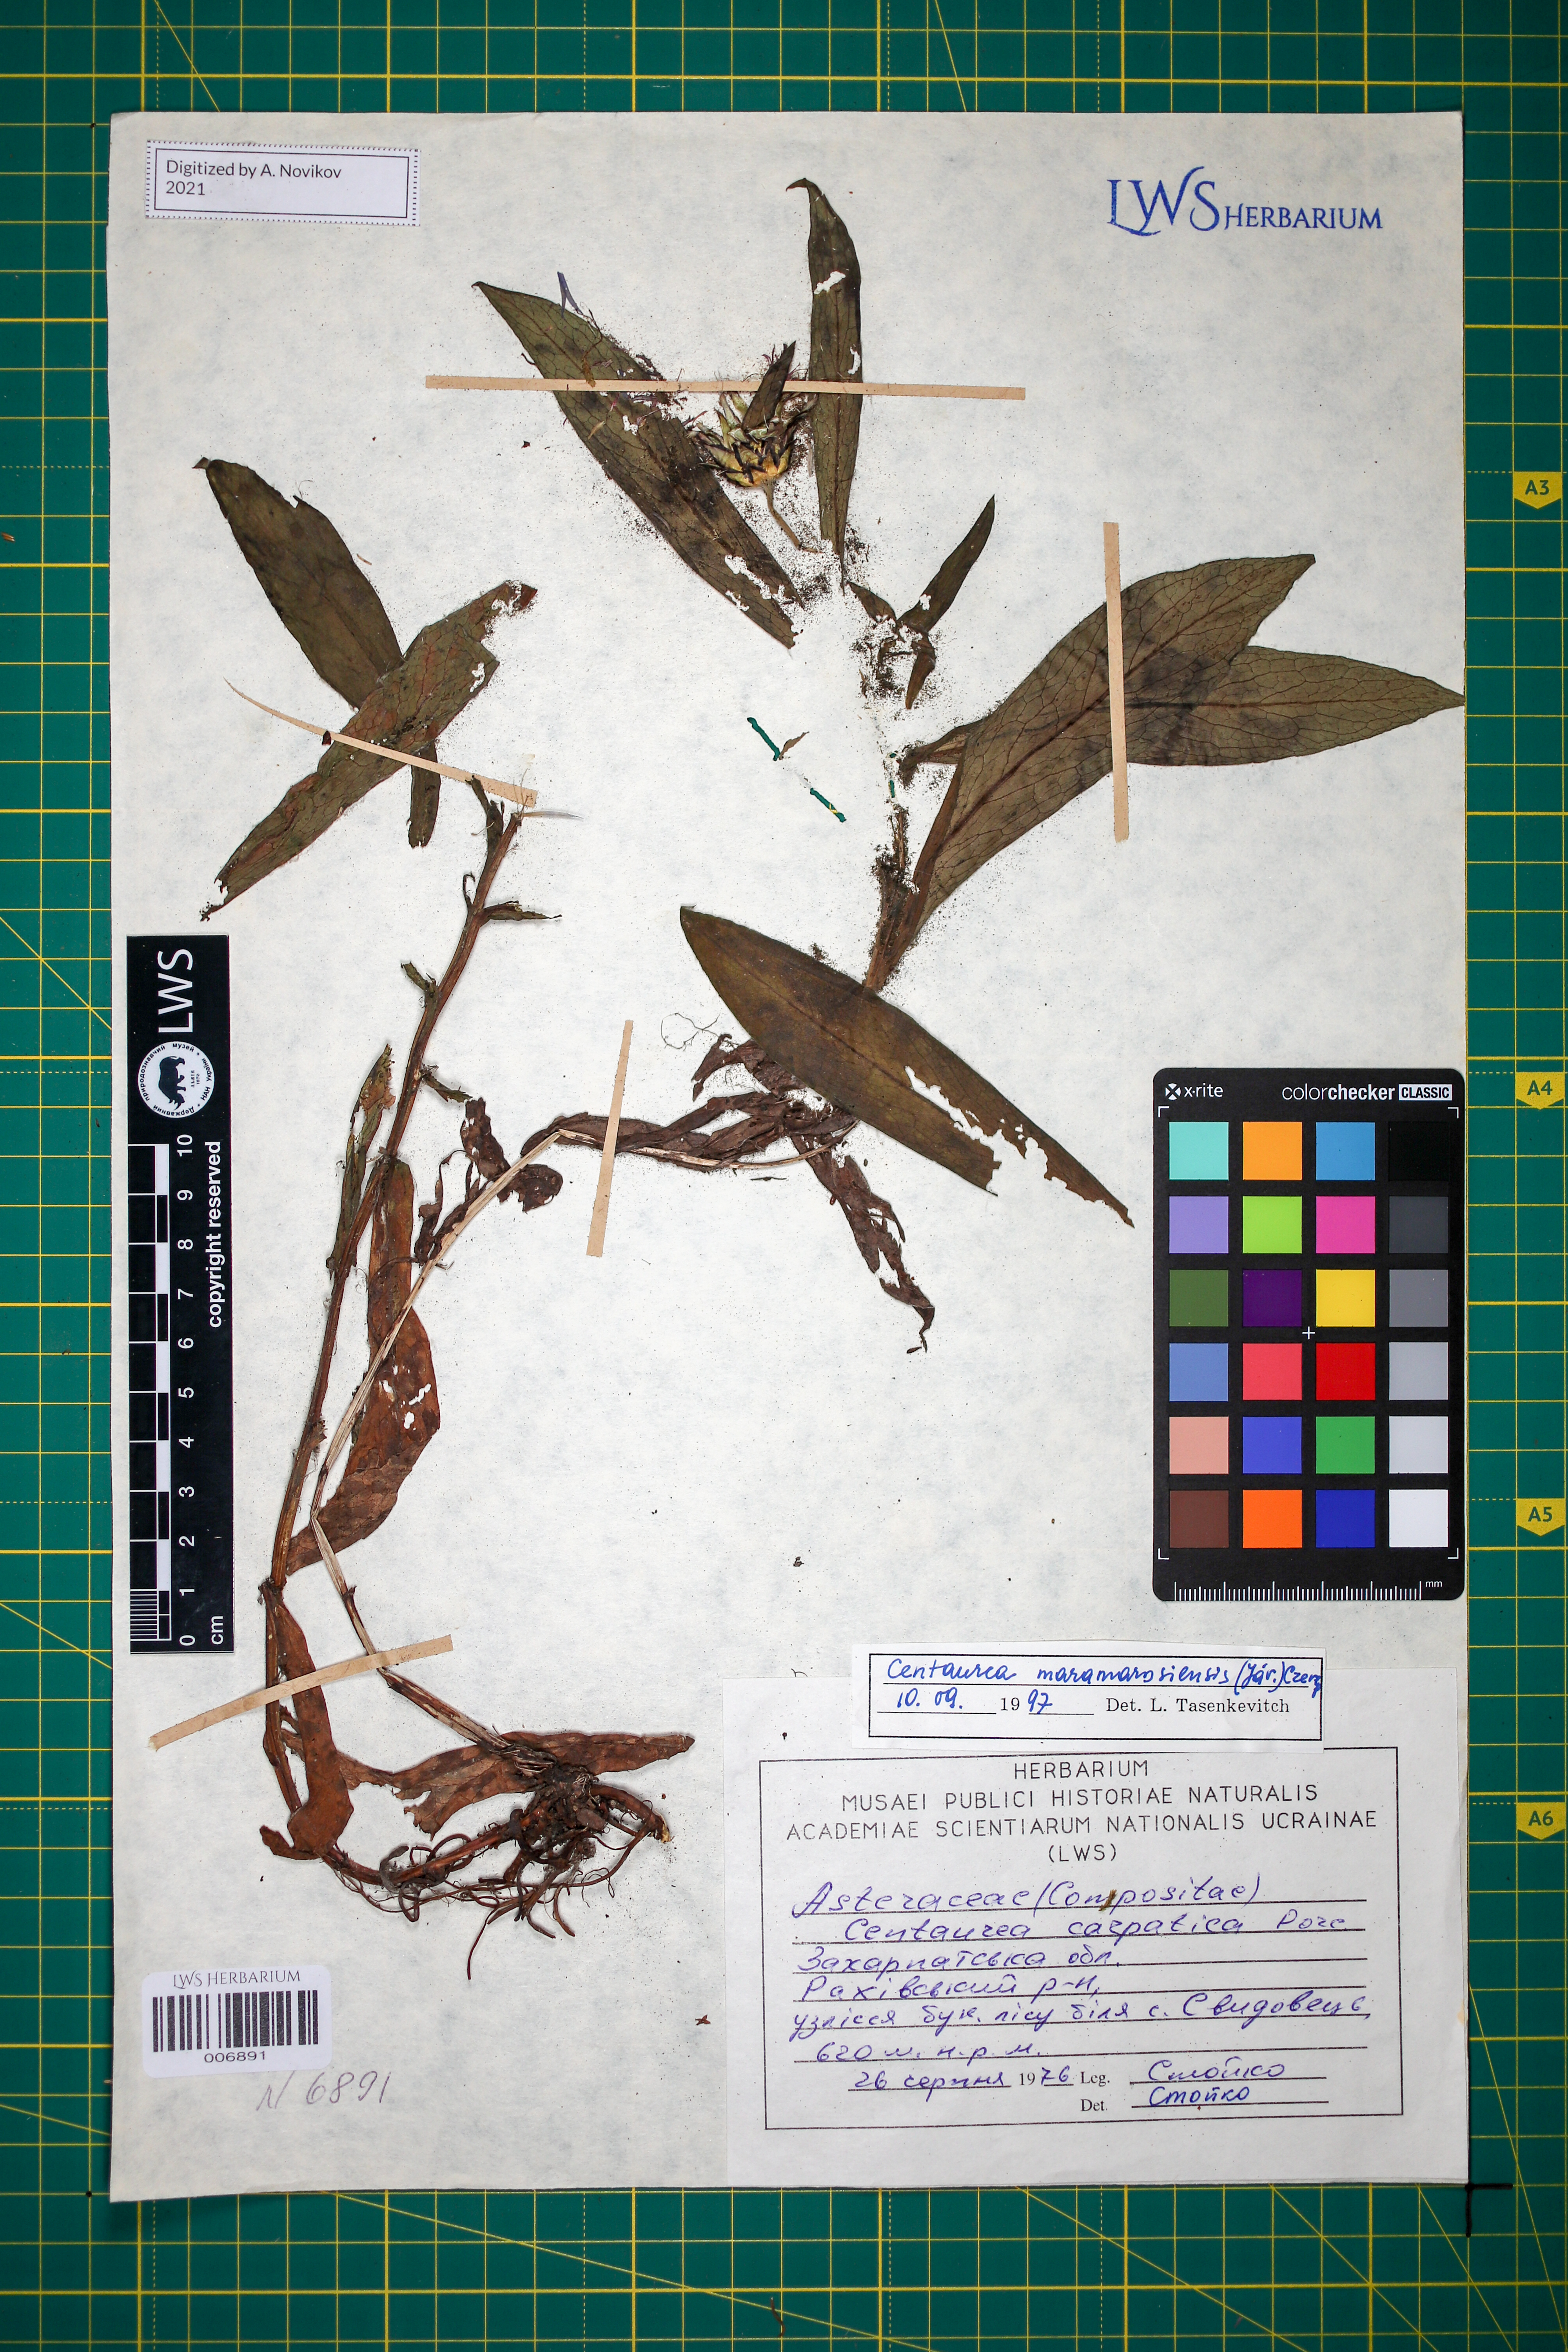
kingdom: Plantae
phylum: Tracheophyta
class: Magnoliopsida
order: Asterales
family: Asteraceae
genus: Centaurea
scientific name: Centaurea maramarosiensis
